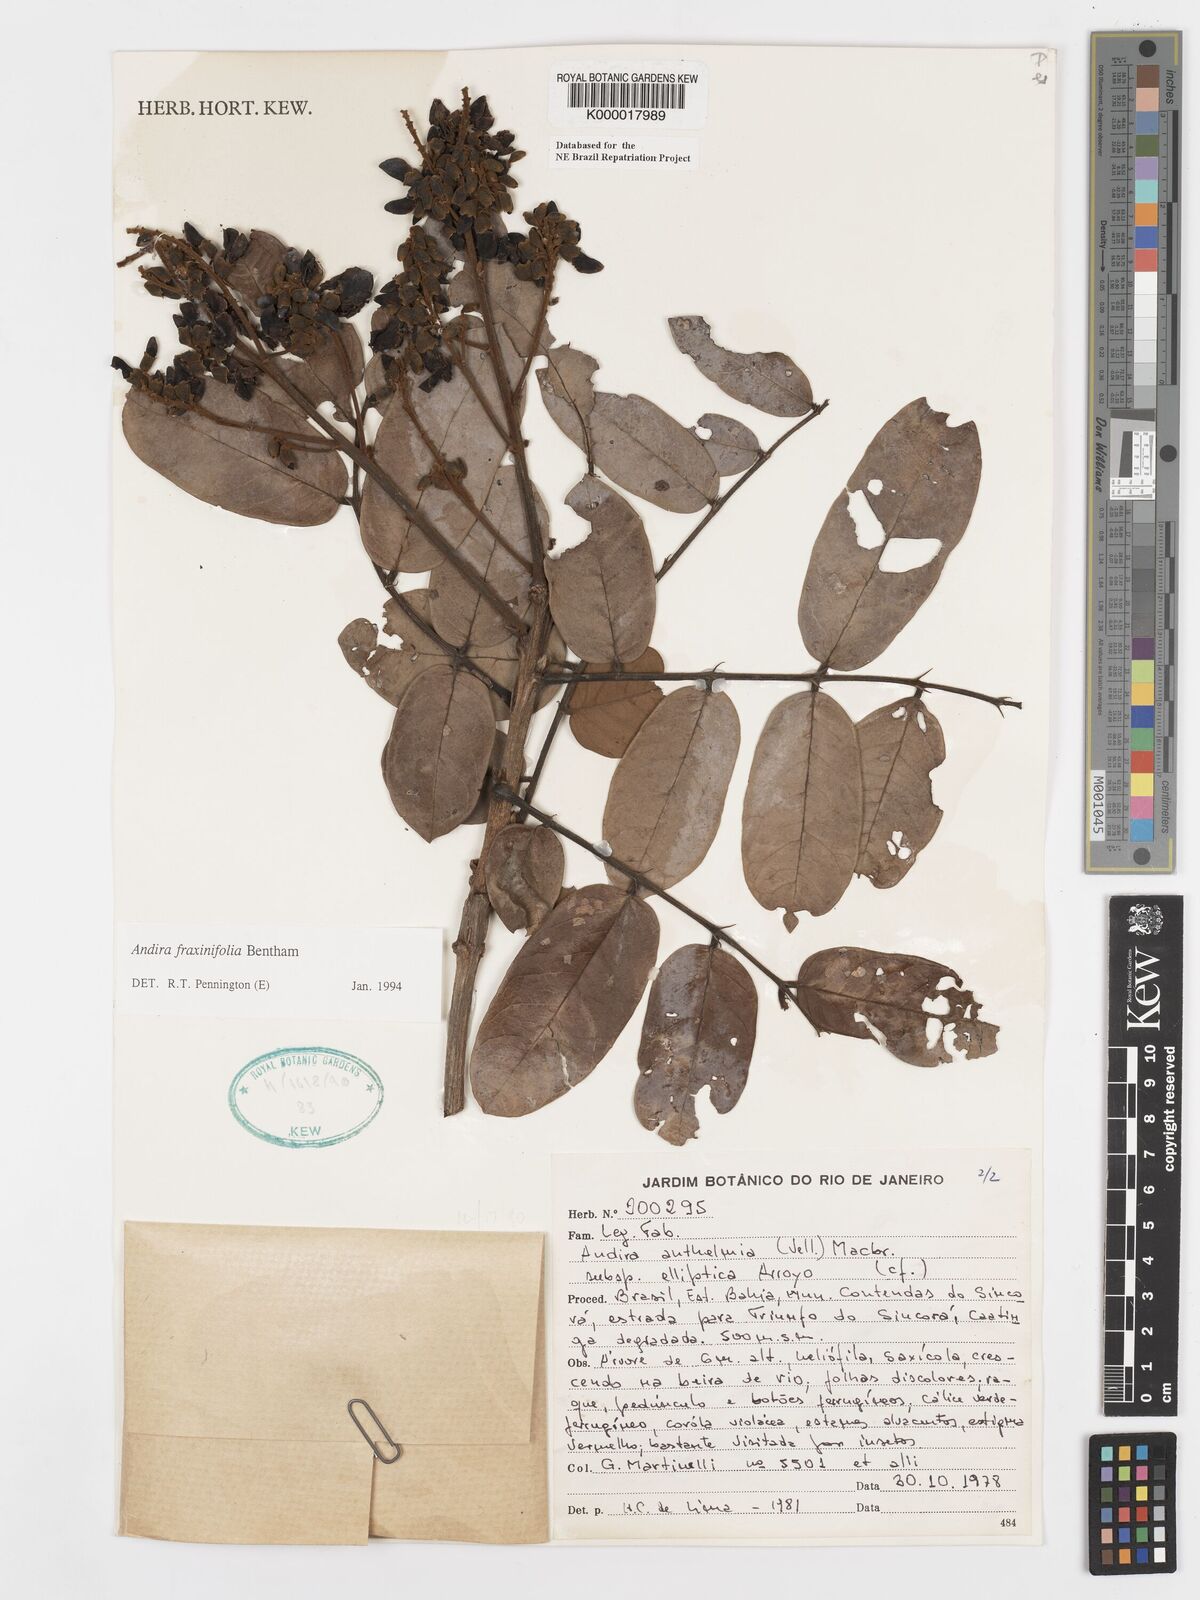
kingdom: Plantae
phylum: Tracheophyta
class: Magnoliopsida
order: Fabales
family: Fabaceae
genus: Andira
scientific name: Andira fraxinifolia
